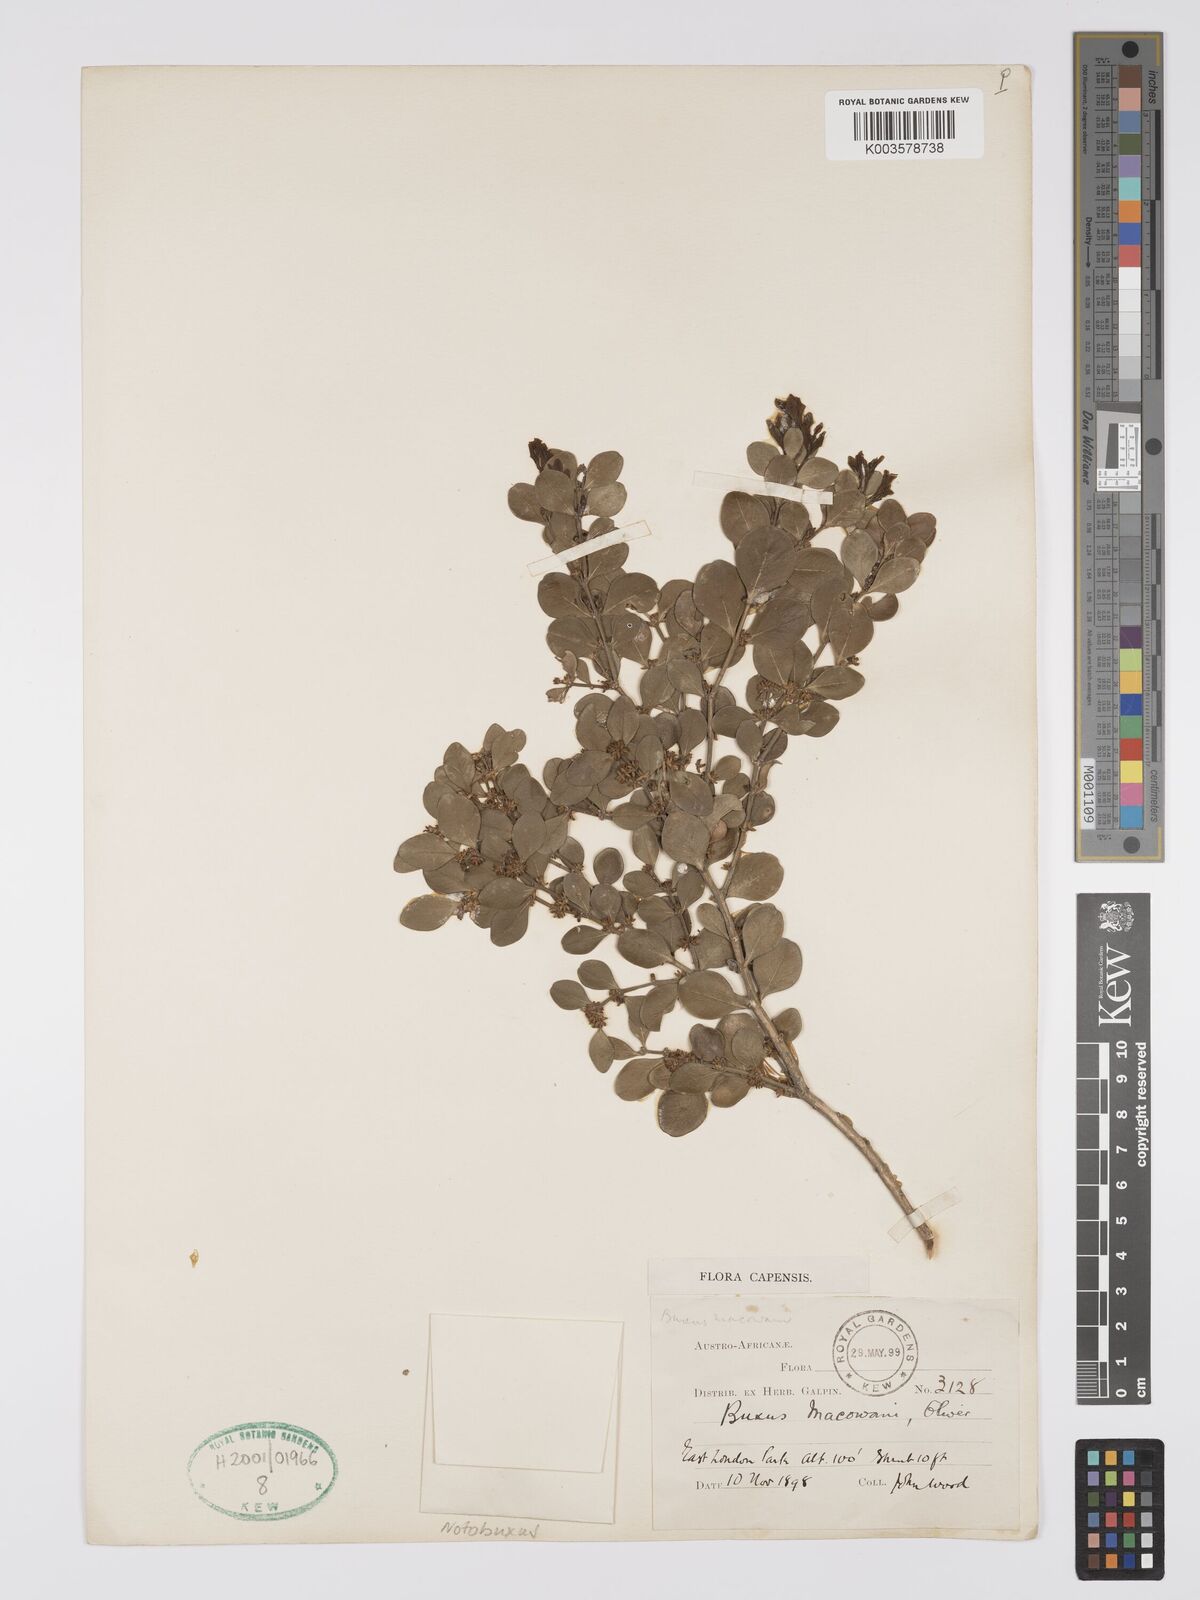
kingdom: Plantae
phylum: Tracheophyta
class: Magnoliopsida
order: Buxales
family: Buxaceae
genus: Buxus
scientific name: Buxus macowanii
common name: Cape box
